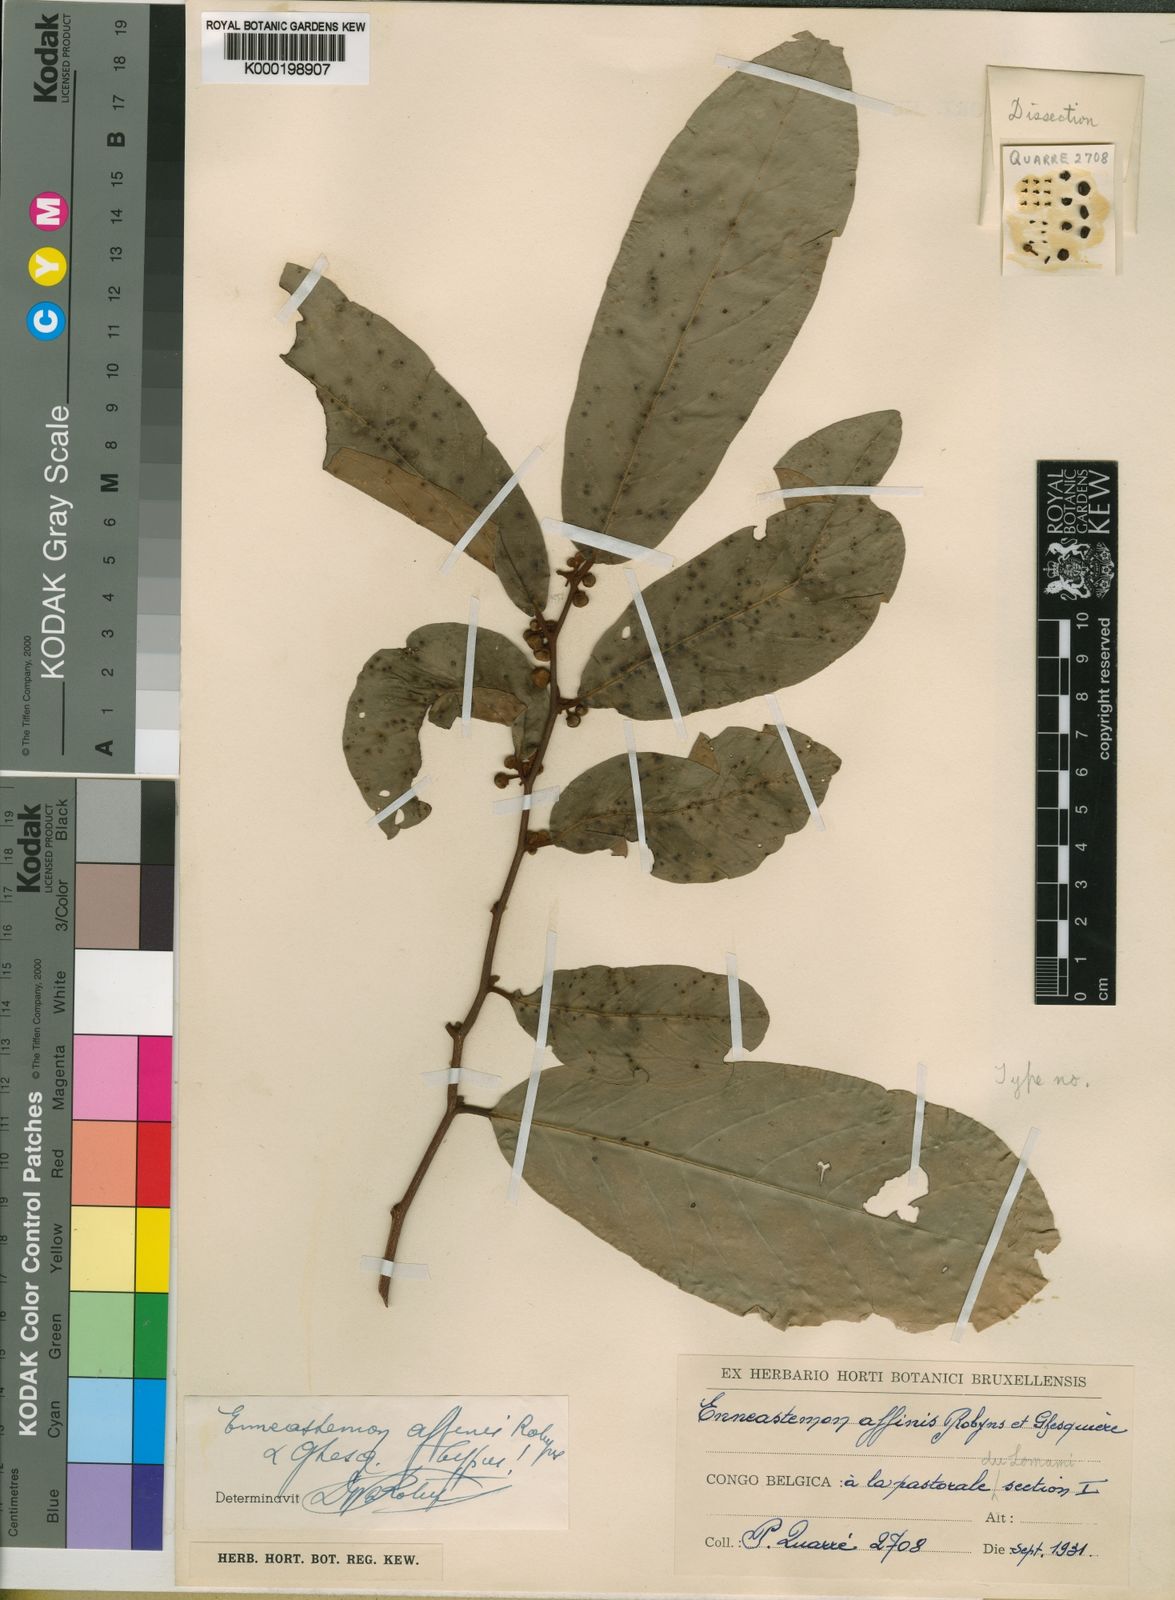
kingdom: Plantae
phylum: Tracheophyta
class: Magnoliopsida
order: Magnoliales
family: Annonaceae
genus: Monanthotaxis
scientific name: Monanthotaxis
